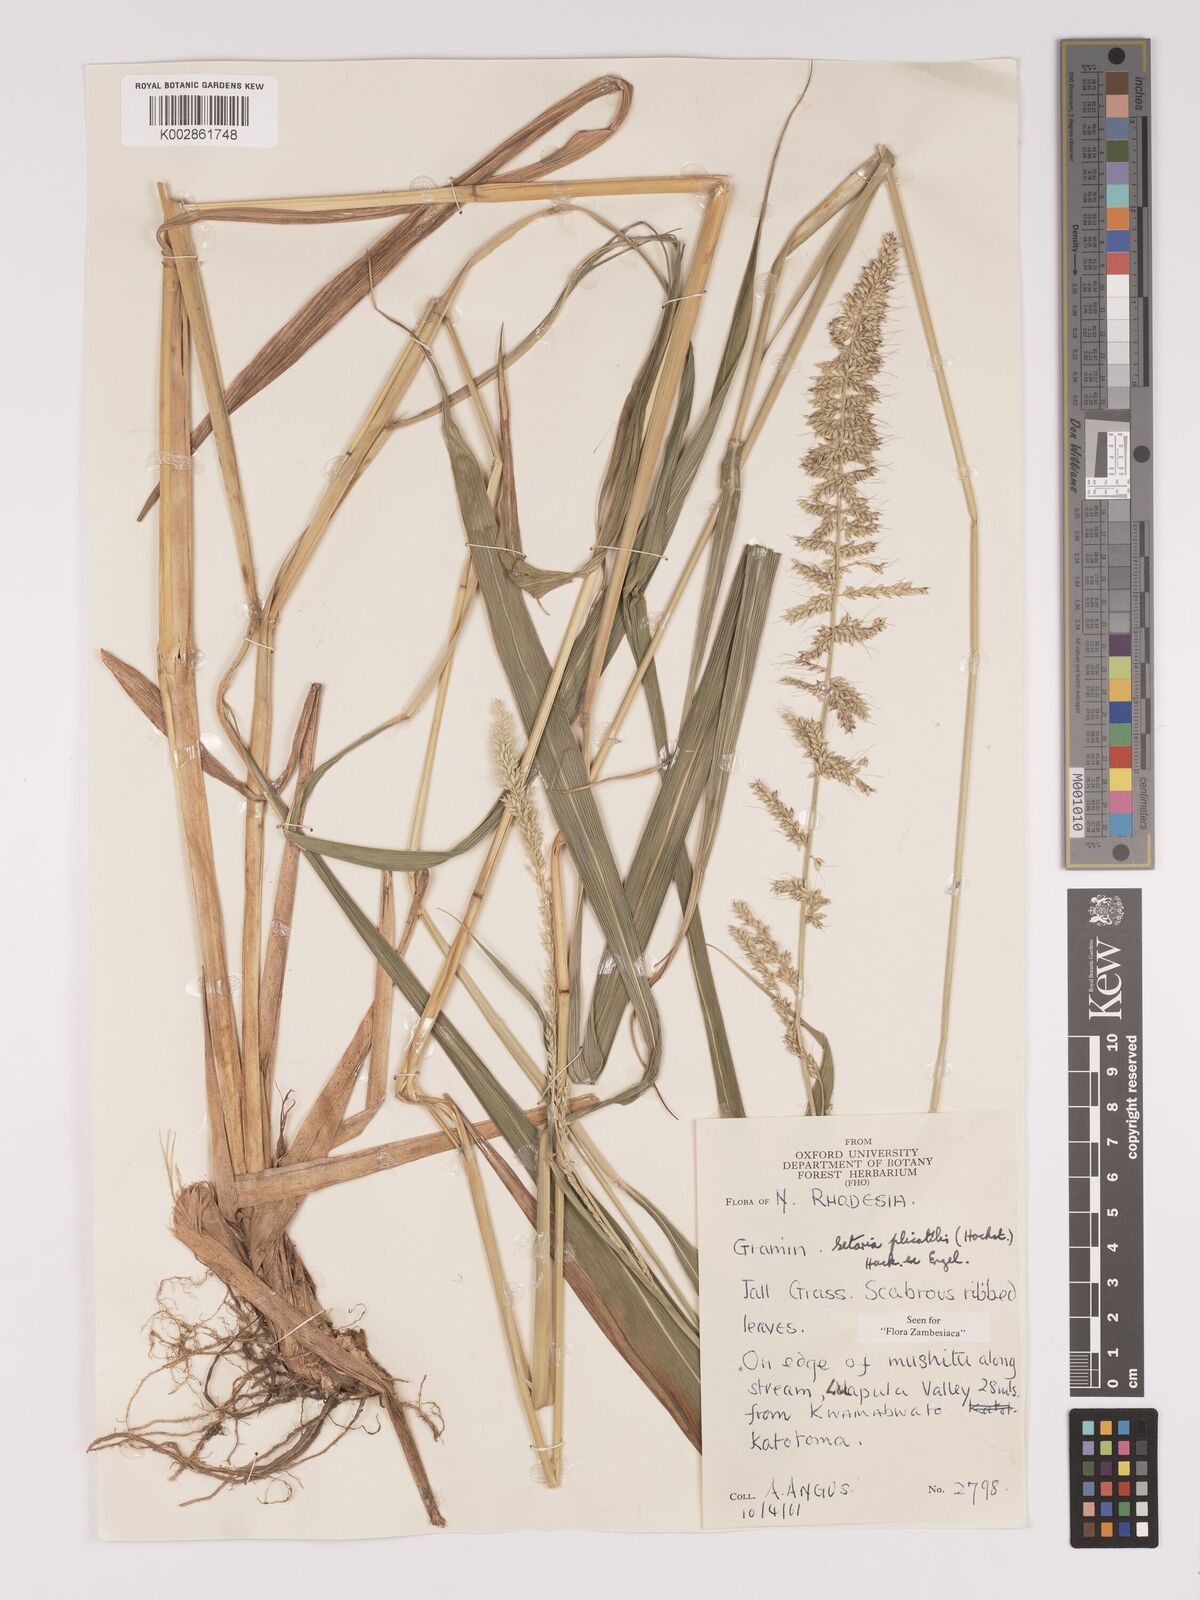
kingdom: Plantae
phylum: Tracheophyta
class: Liliopsida
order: Poales
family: Poaceae
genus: Setaria
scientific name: Setaria megaphylla
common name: Bigleaf bristlegrass
